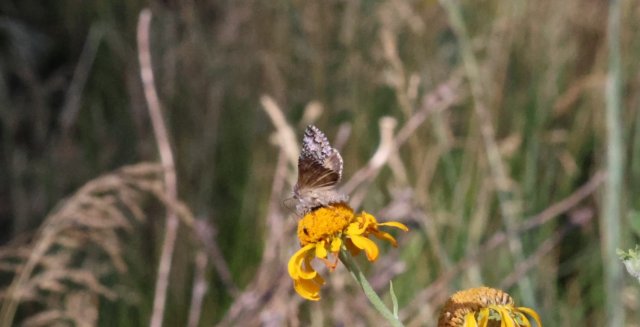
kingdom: Animalia
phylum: Arthropoda
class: Insecta
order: Lepidoptera
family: Hesperiidae
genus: Erynnis
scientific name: Erynnis brizo
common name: Sleepy Duskywing
